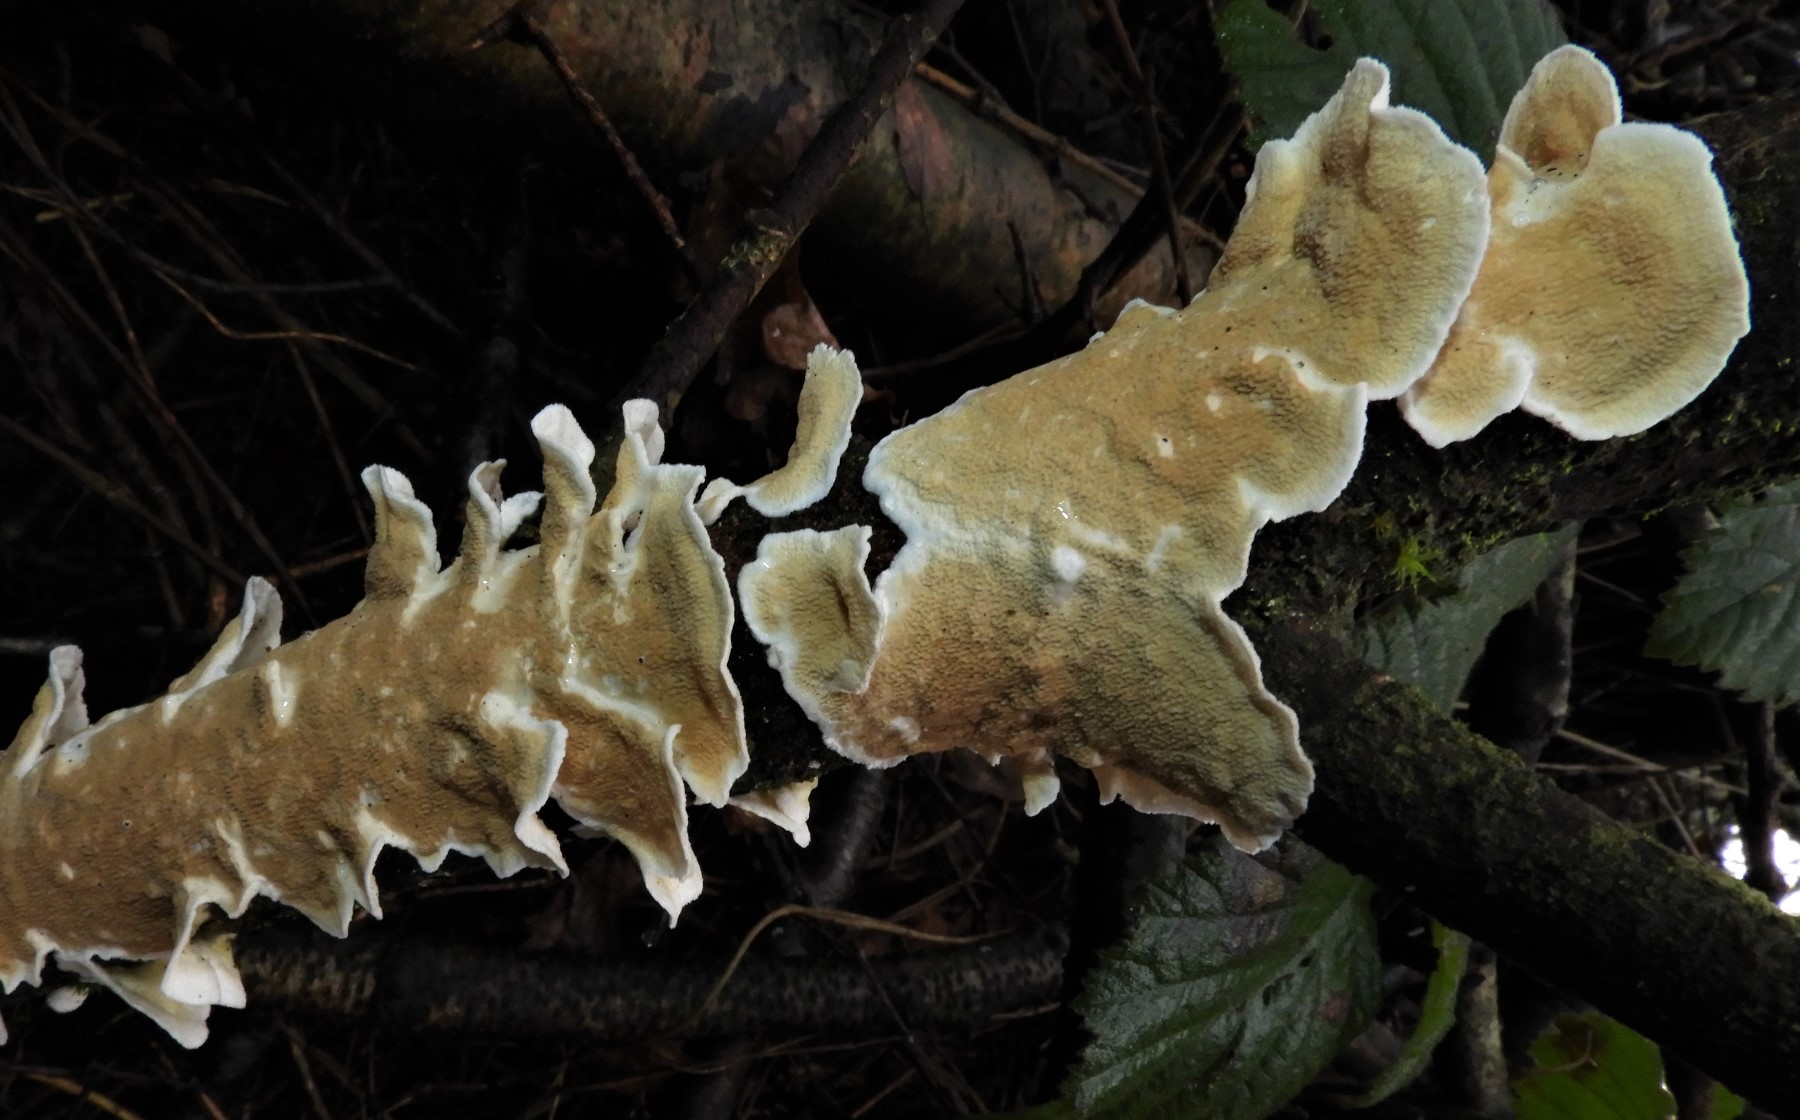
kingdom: Fungi
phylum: Basidiomycota
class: Agaricomycetes
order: Polyporales
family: Irpicaceae
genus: Byssomerulius
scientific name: Byssomerulius corium
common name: læder-åresvamp
